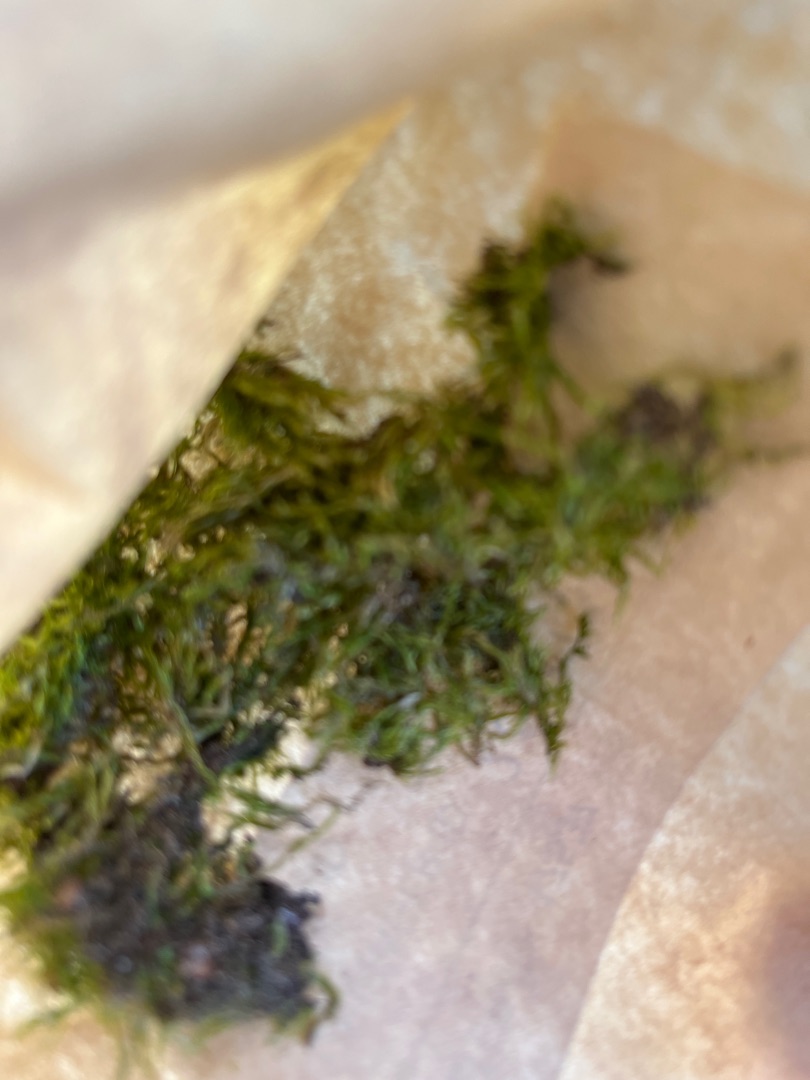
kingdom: Plantae
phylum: Bryophyta
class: Bryopsida
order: Hypnales
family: Hypnaceae
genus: Hypnum
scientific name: Hypnum
